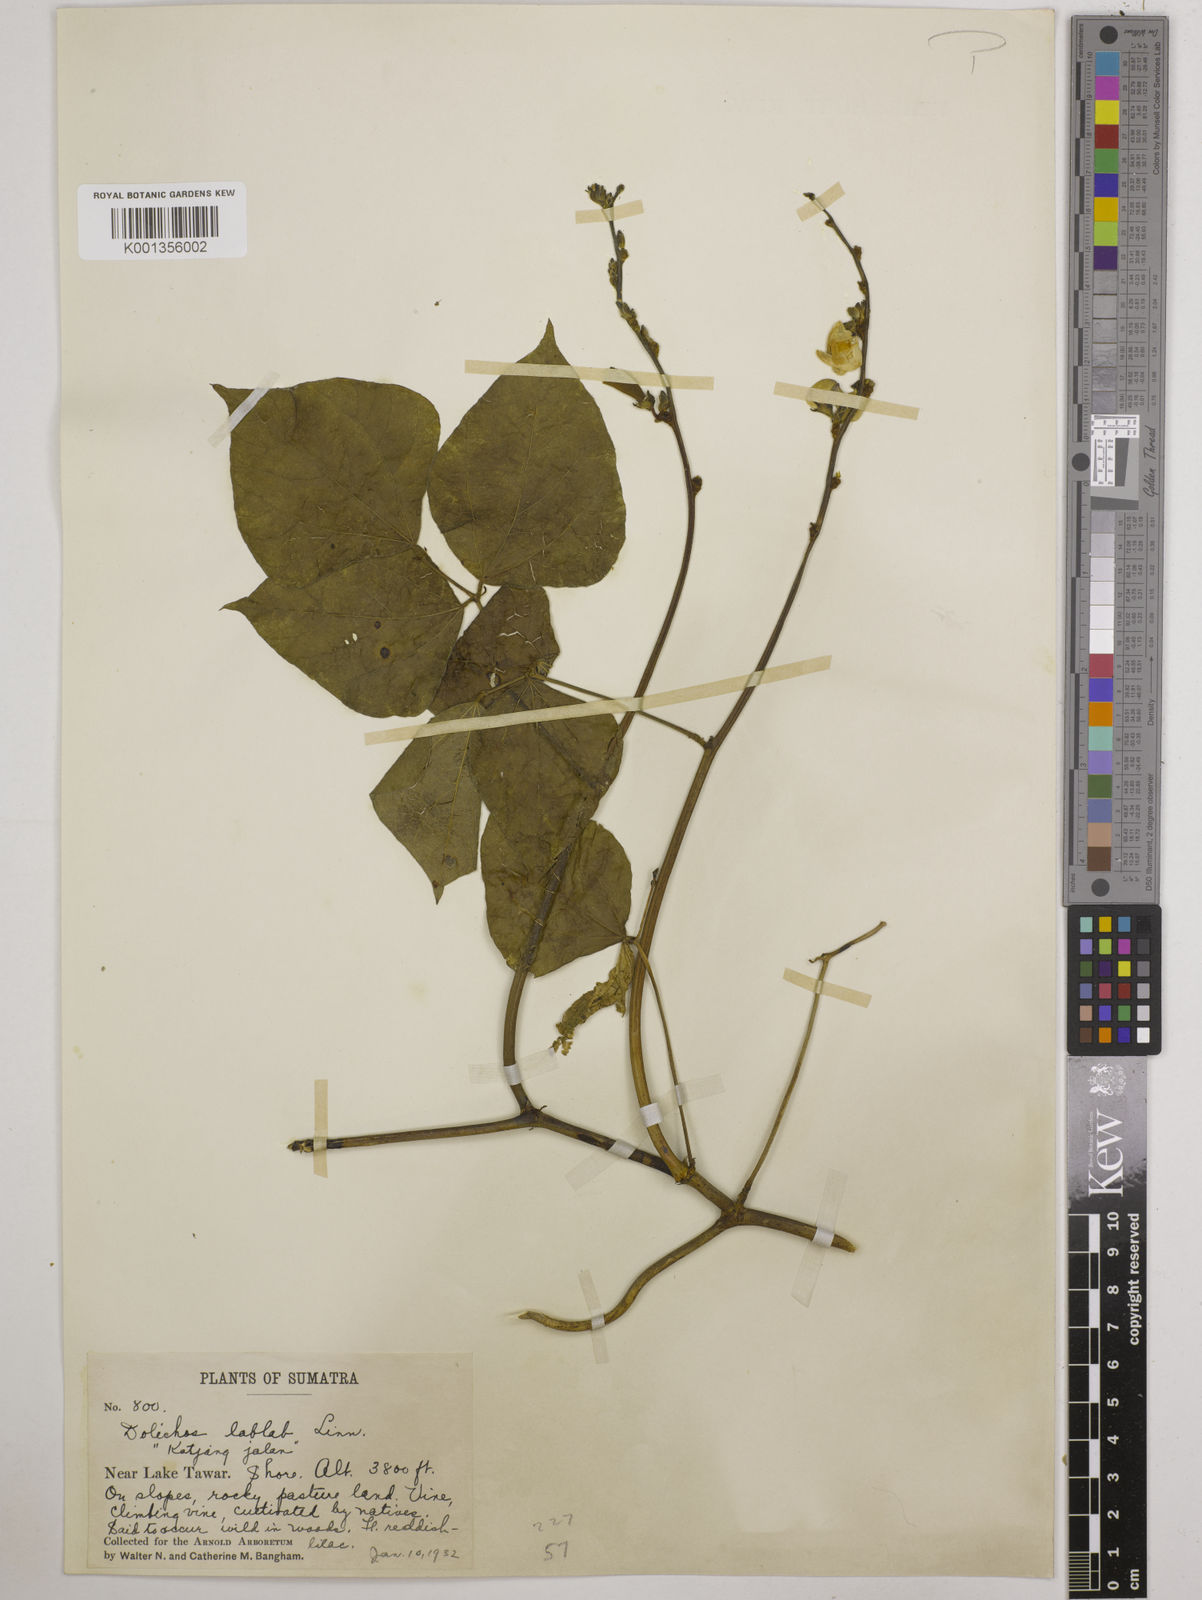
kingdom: Plantae
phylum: Tracheophyta
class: Magnoliopsida
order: Fabales
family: Fabaceae
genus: Lablab
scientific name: Lablab purpureus
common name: Lablab-bean
